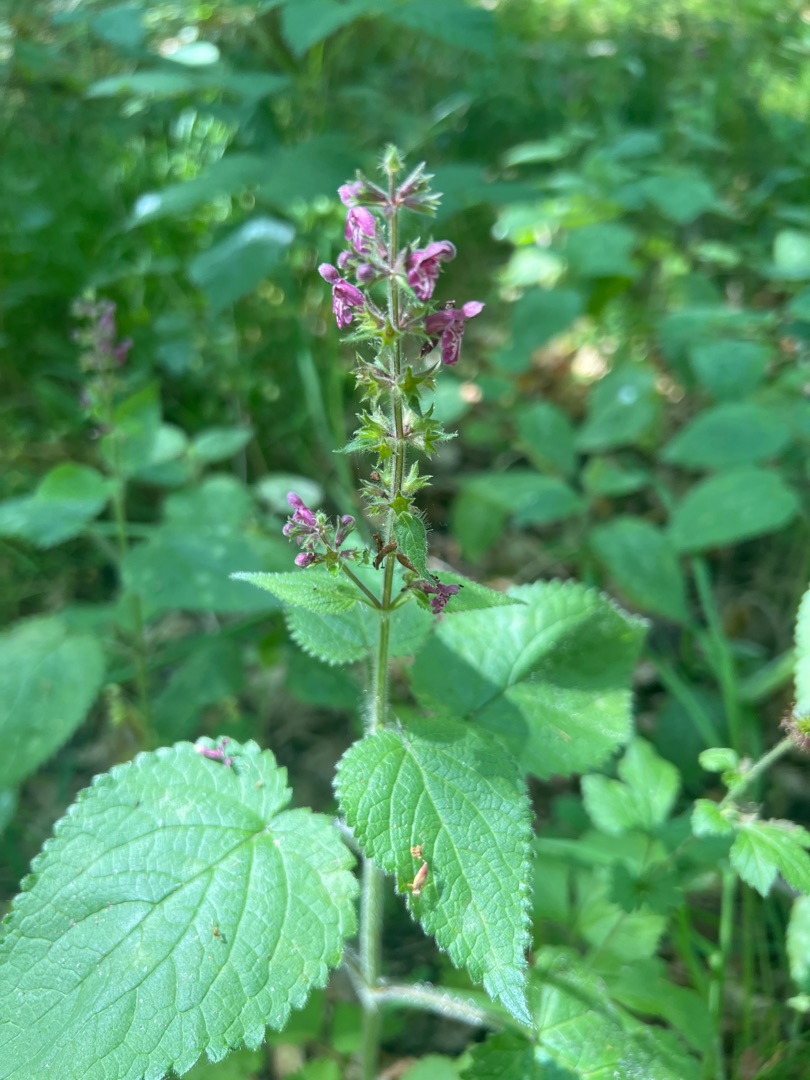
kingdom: Plantae
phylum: Tracheophyta
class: Magnoliopsida
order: Lamiales
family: Lamiaceae
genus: Stachys
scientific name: Stachys sylvatica
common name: Skov-galtetand
